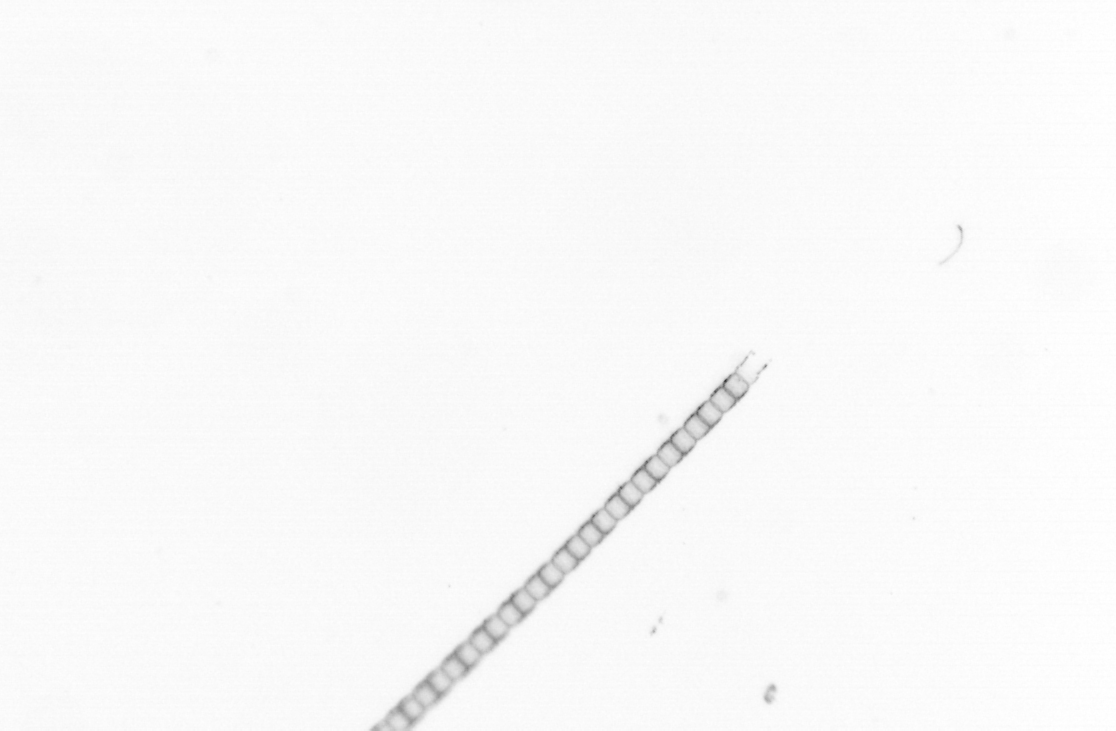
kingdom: Chromista
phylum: Ochrophyta
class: Bacillariophyceae
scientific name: Bacillariophyceae
